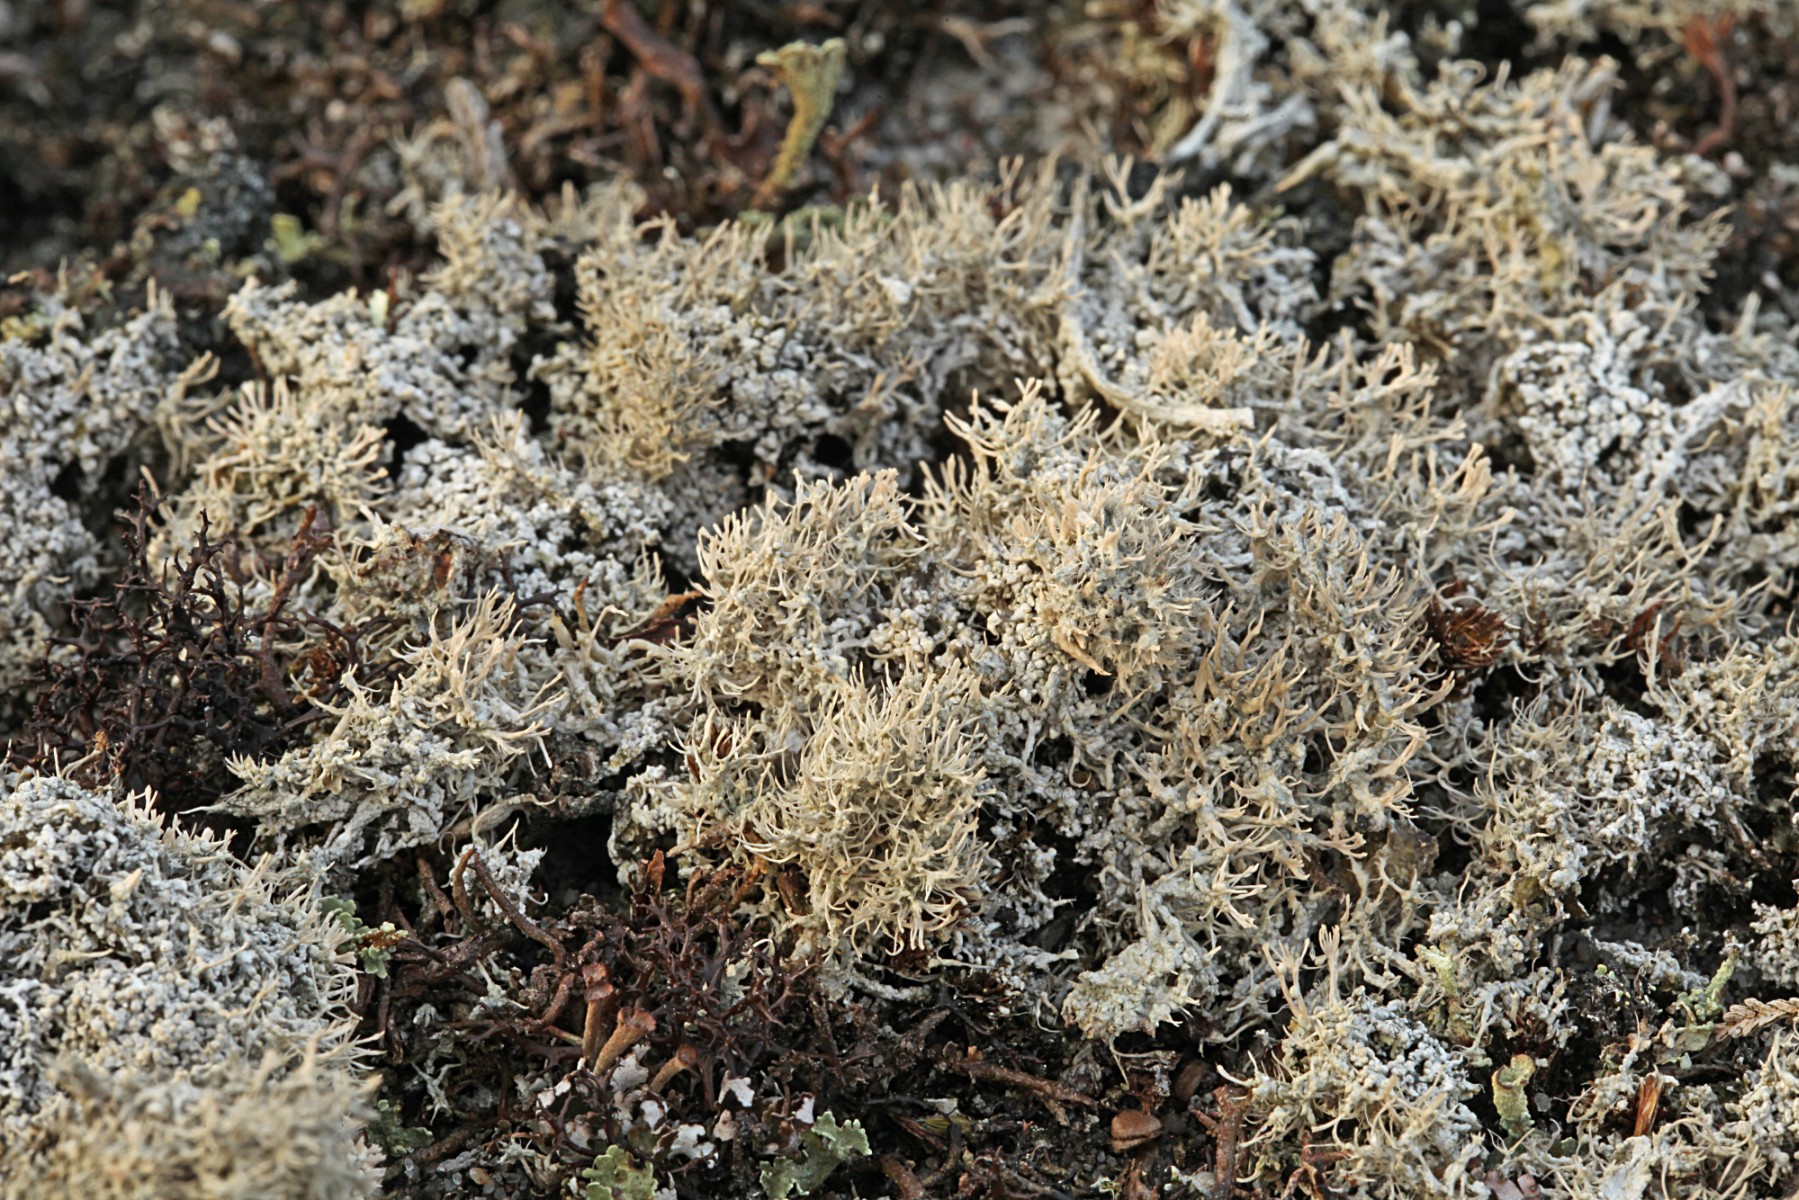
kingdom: Fungi
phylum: Ascomycota
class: Lecanoromycetes
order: Pertusariales
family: Ochrolechiaceae
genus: Ochrolechia
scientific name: Ochrolechia frigida
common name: fjeld-blegskivelav
